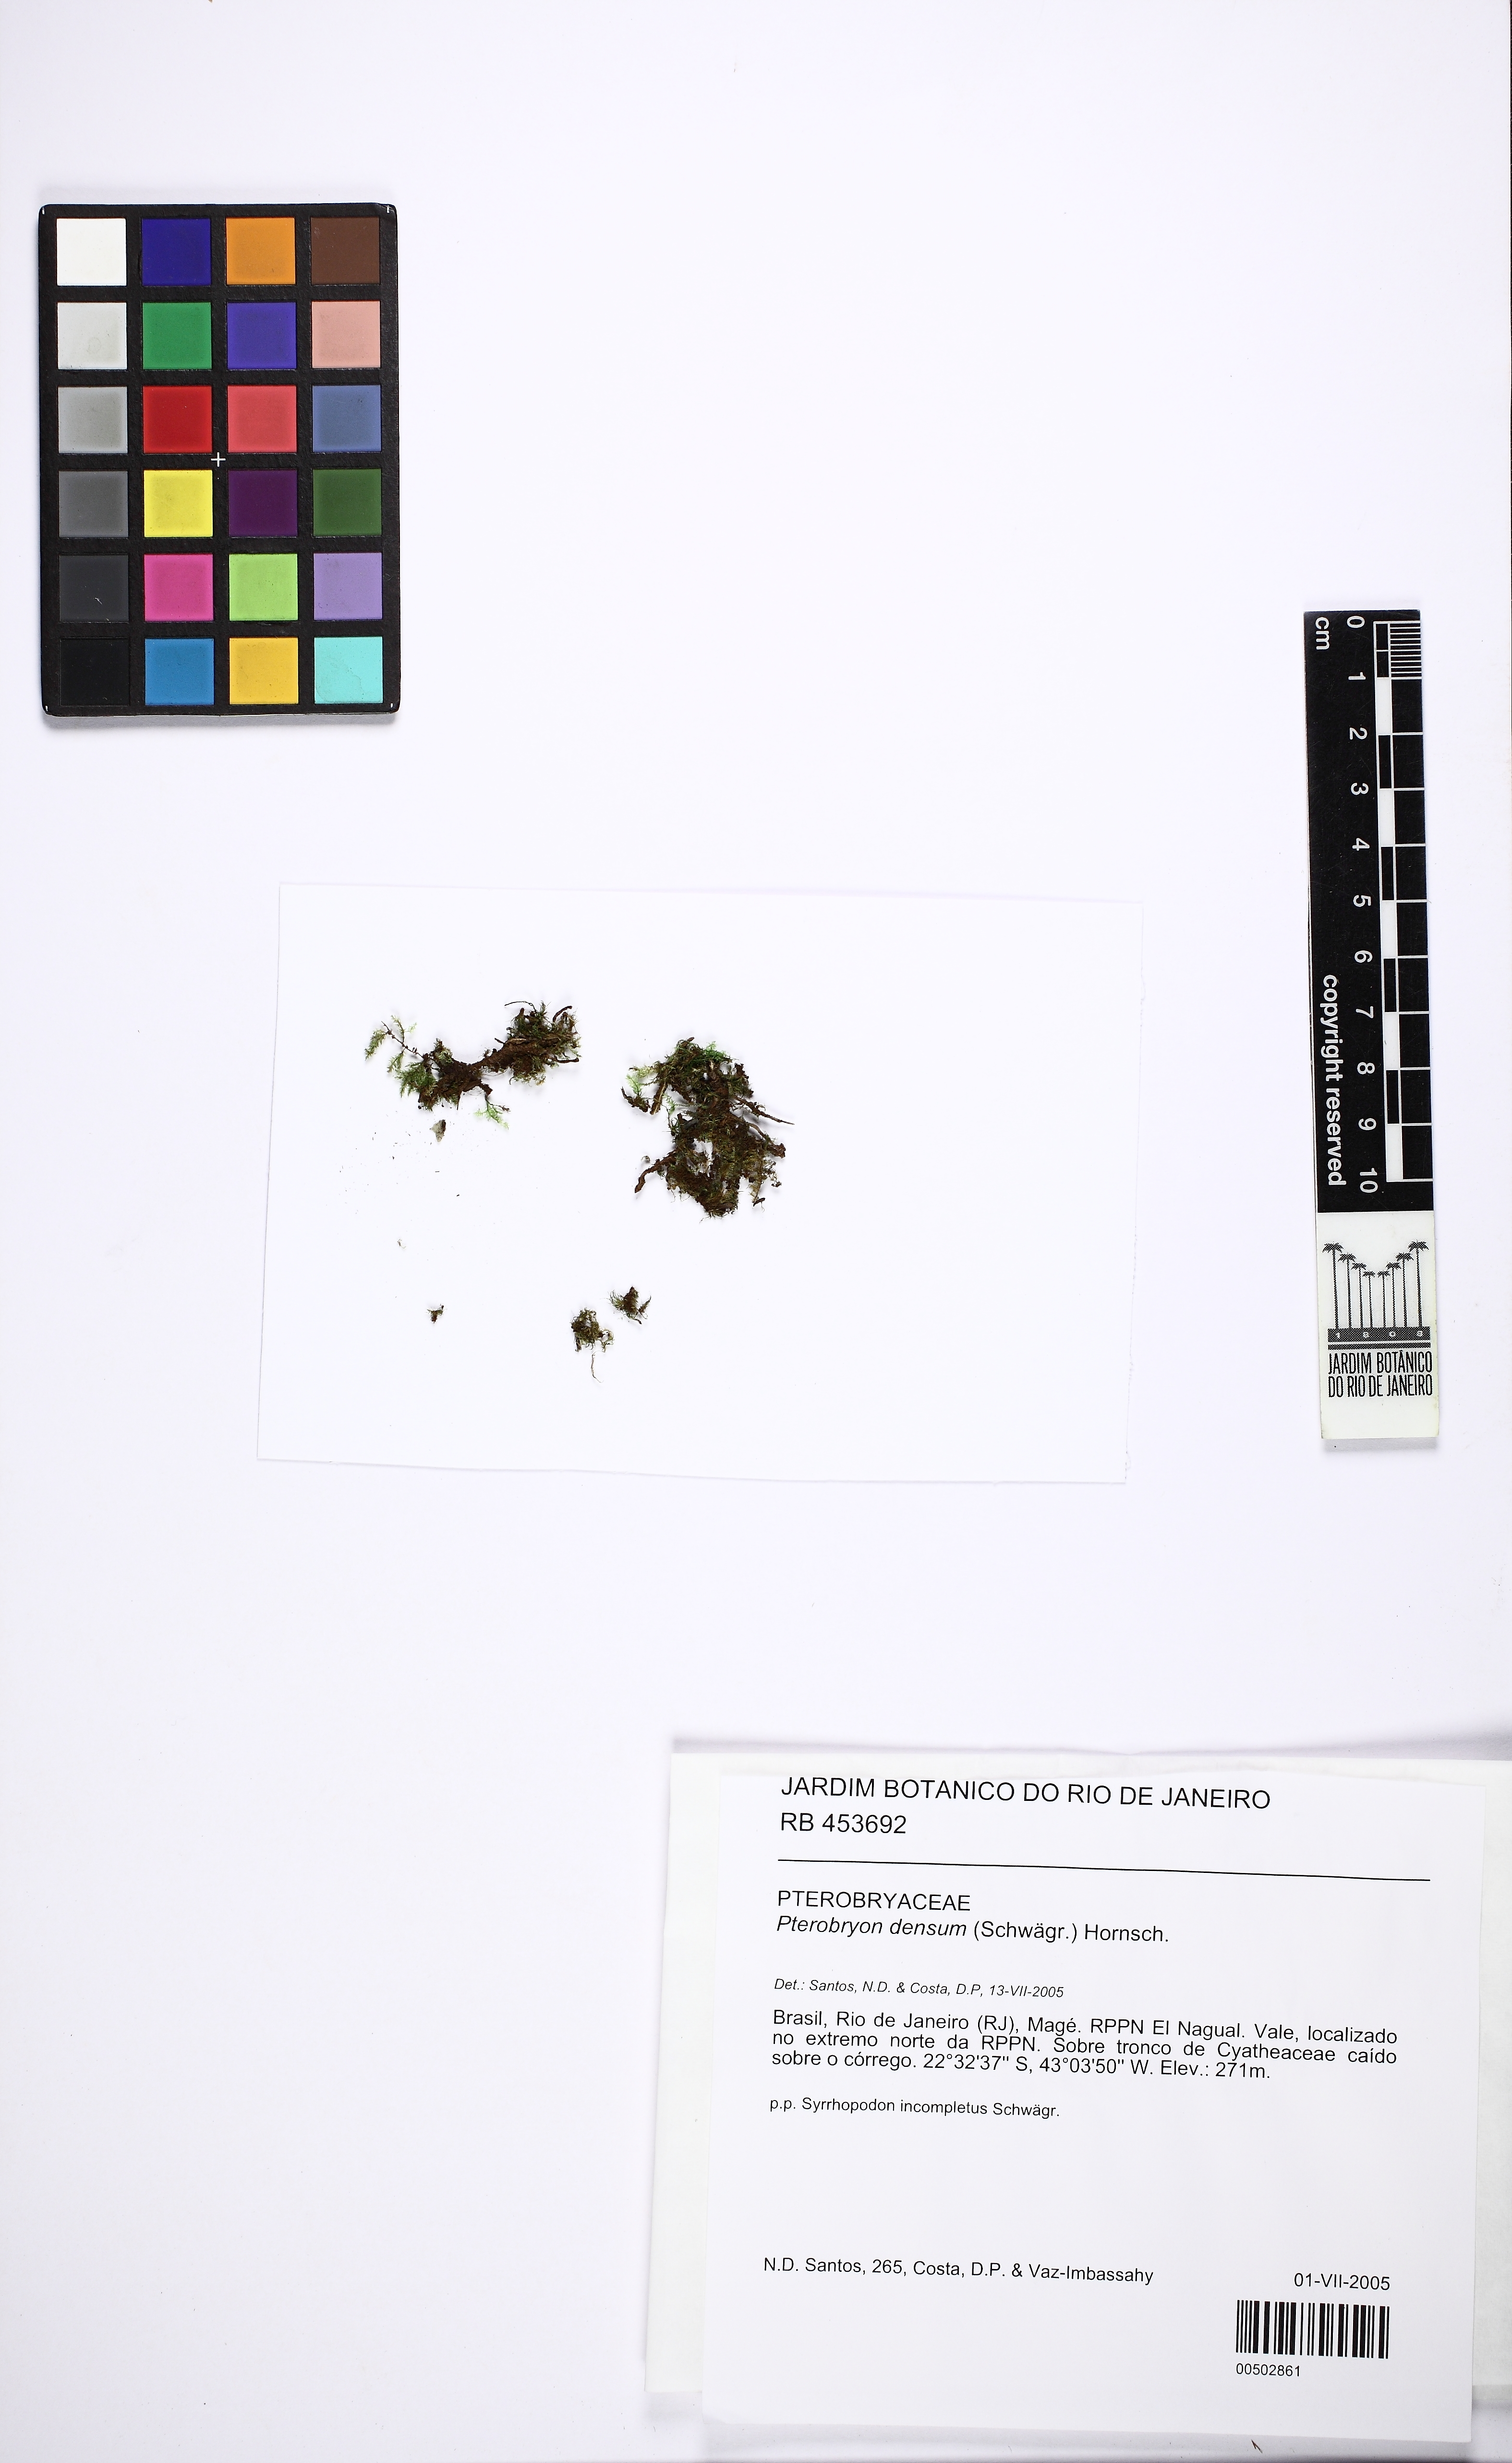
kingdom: Plantae
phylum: Bryophyta
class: Bryopsida
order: Hypnales
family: Pterobryaceae
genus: Pterobryon
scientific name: Pterobryon densum
